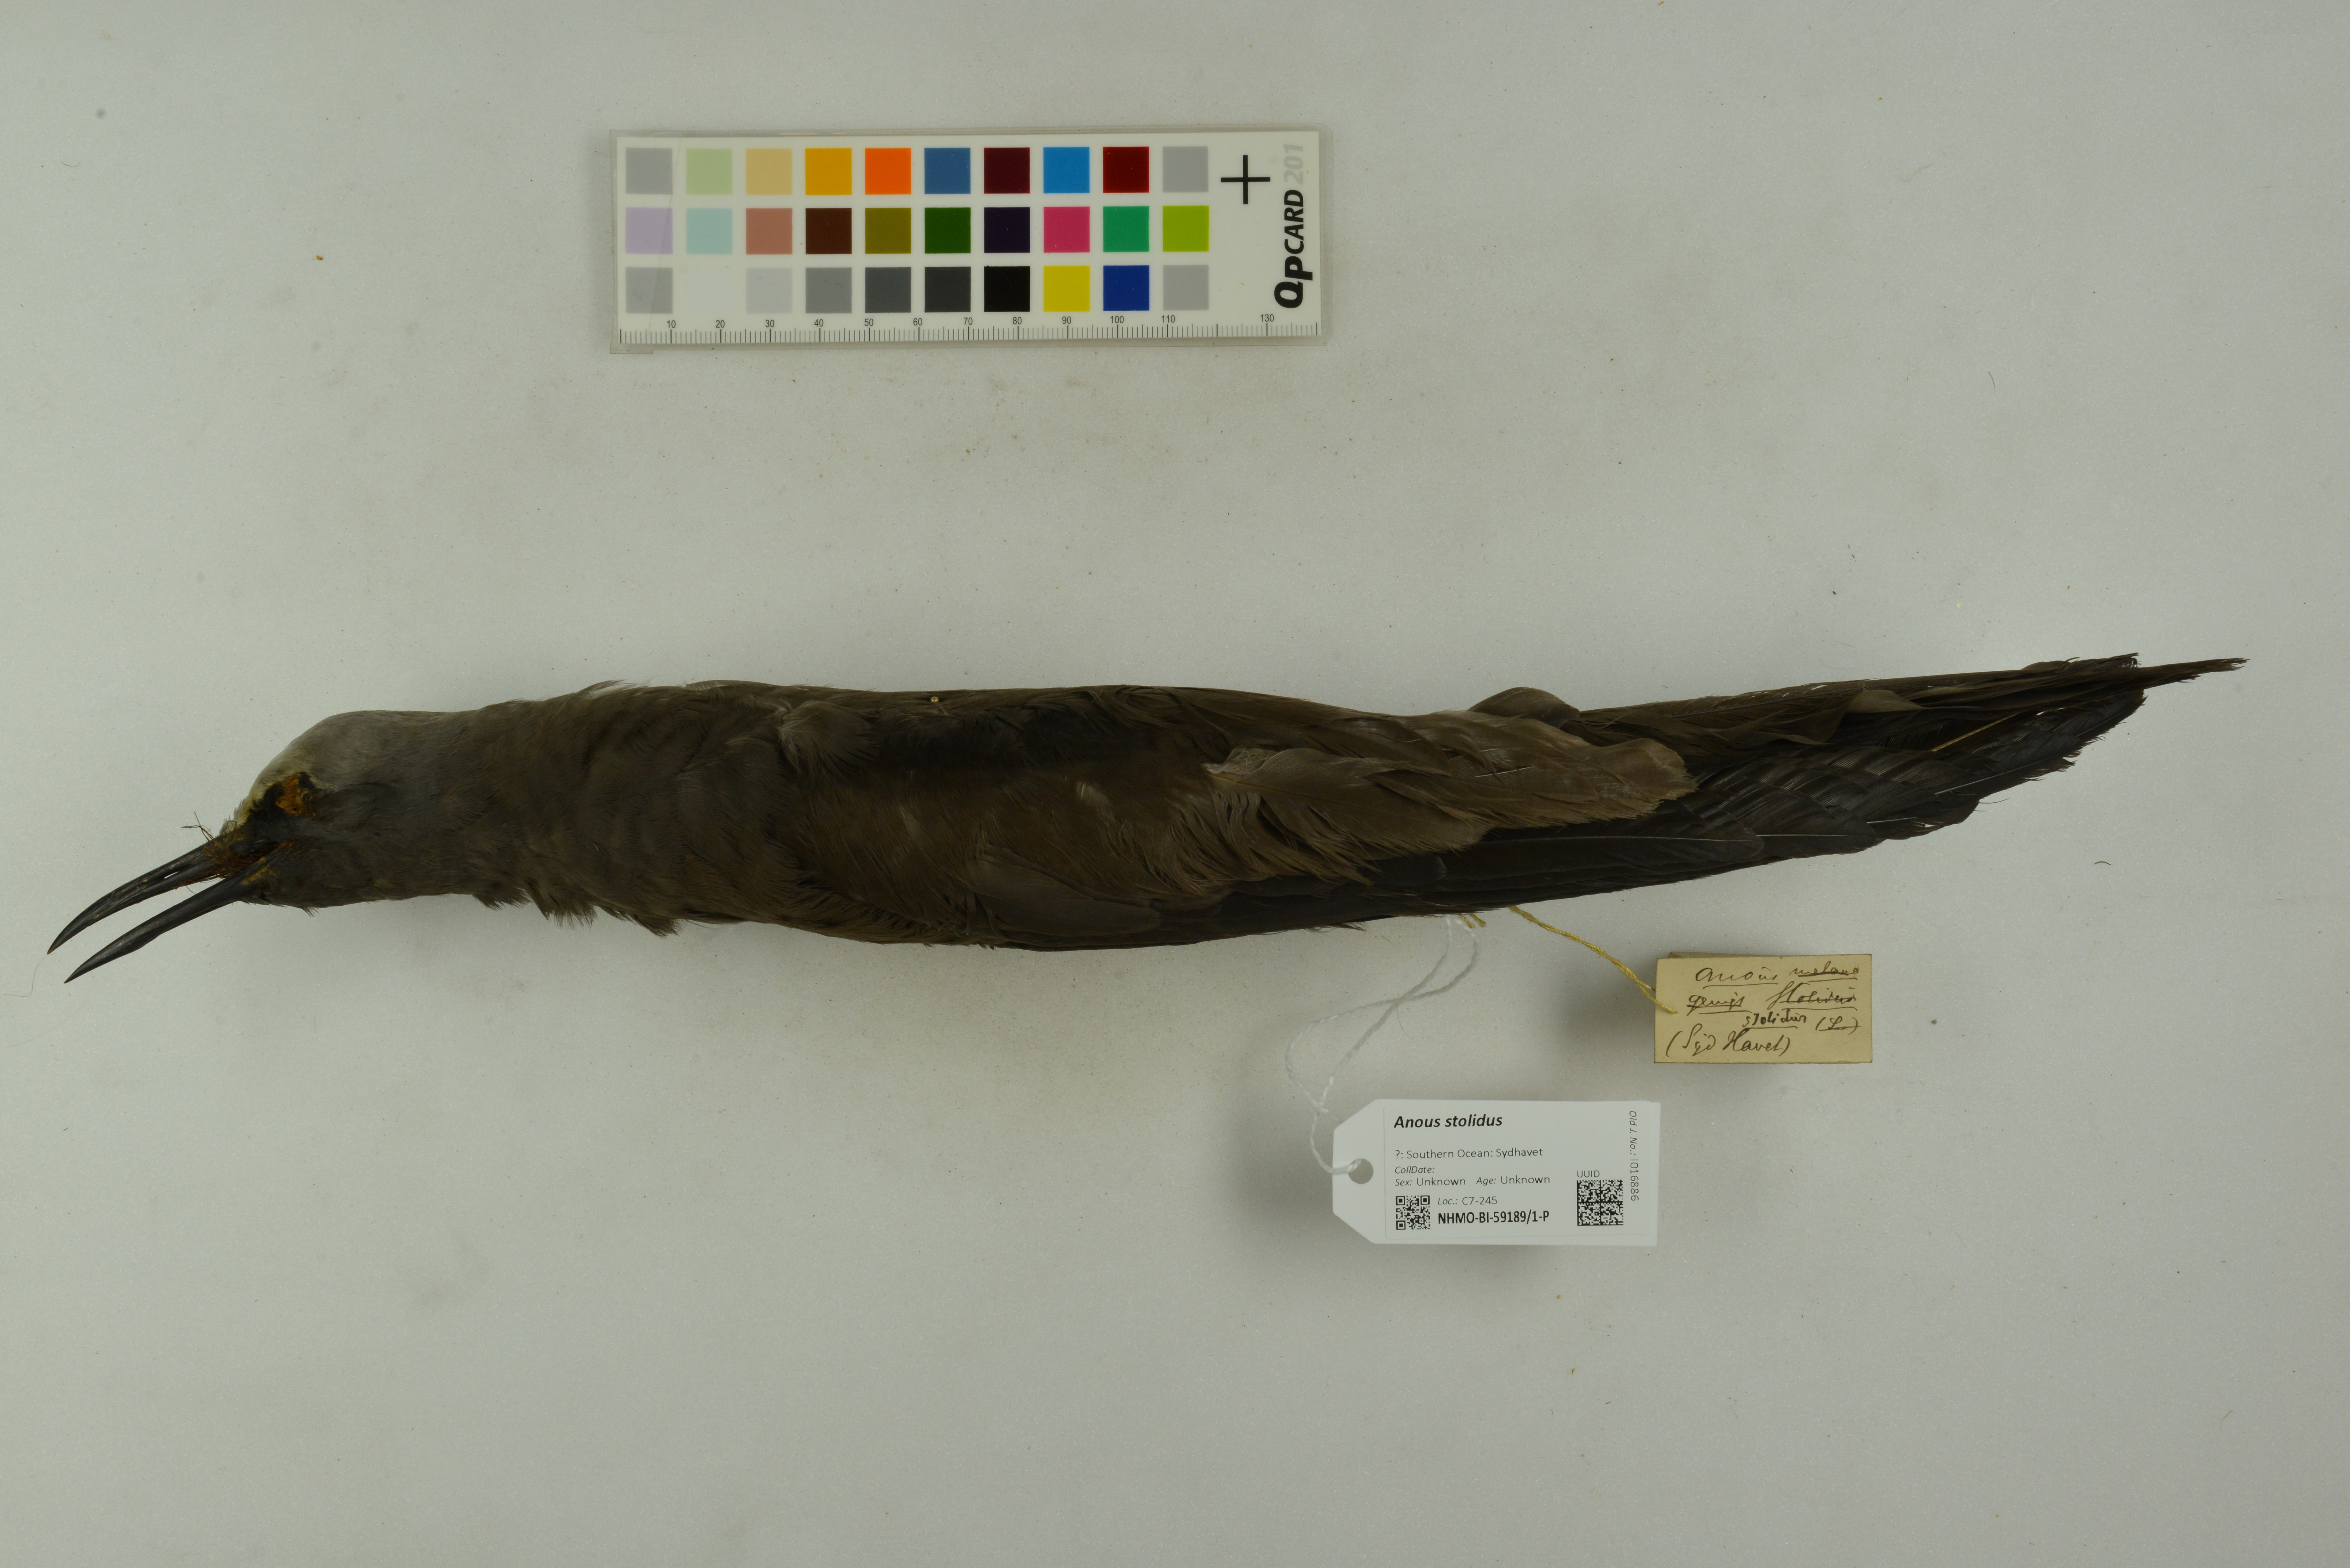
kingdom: Animalia
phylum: Chordata
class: Aves
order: Charadriiformes
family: Laridae
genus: Anous
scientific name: Anous stolidus
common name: Brown noddy
